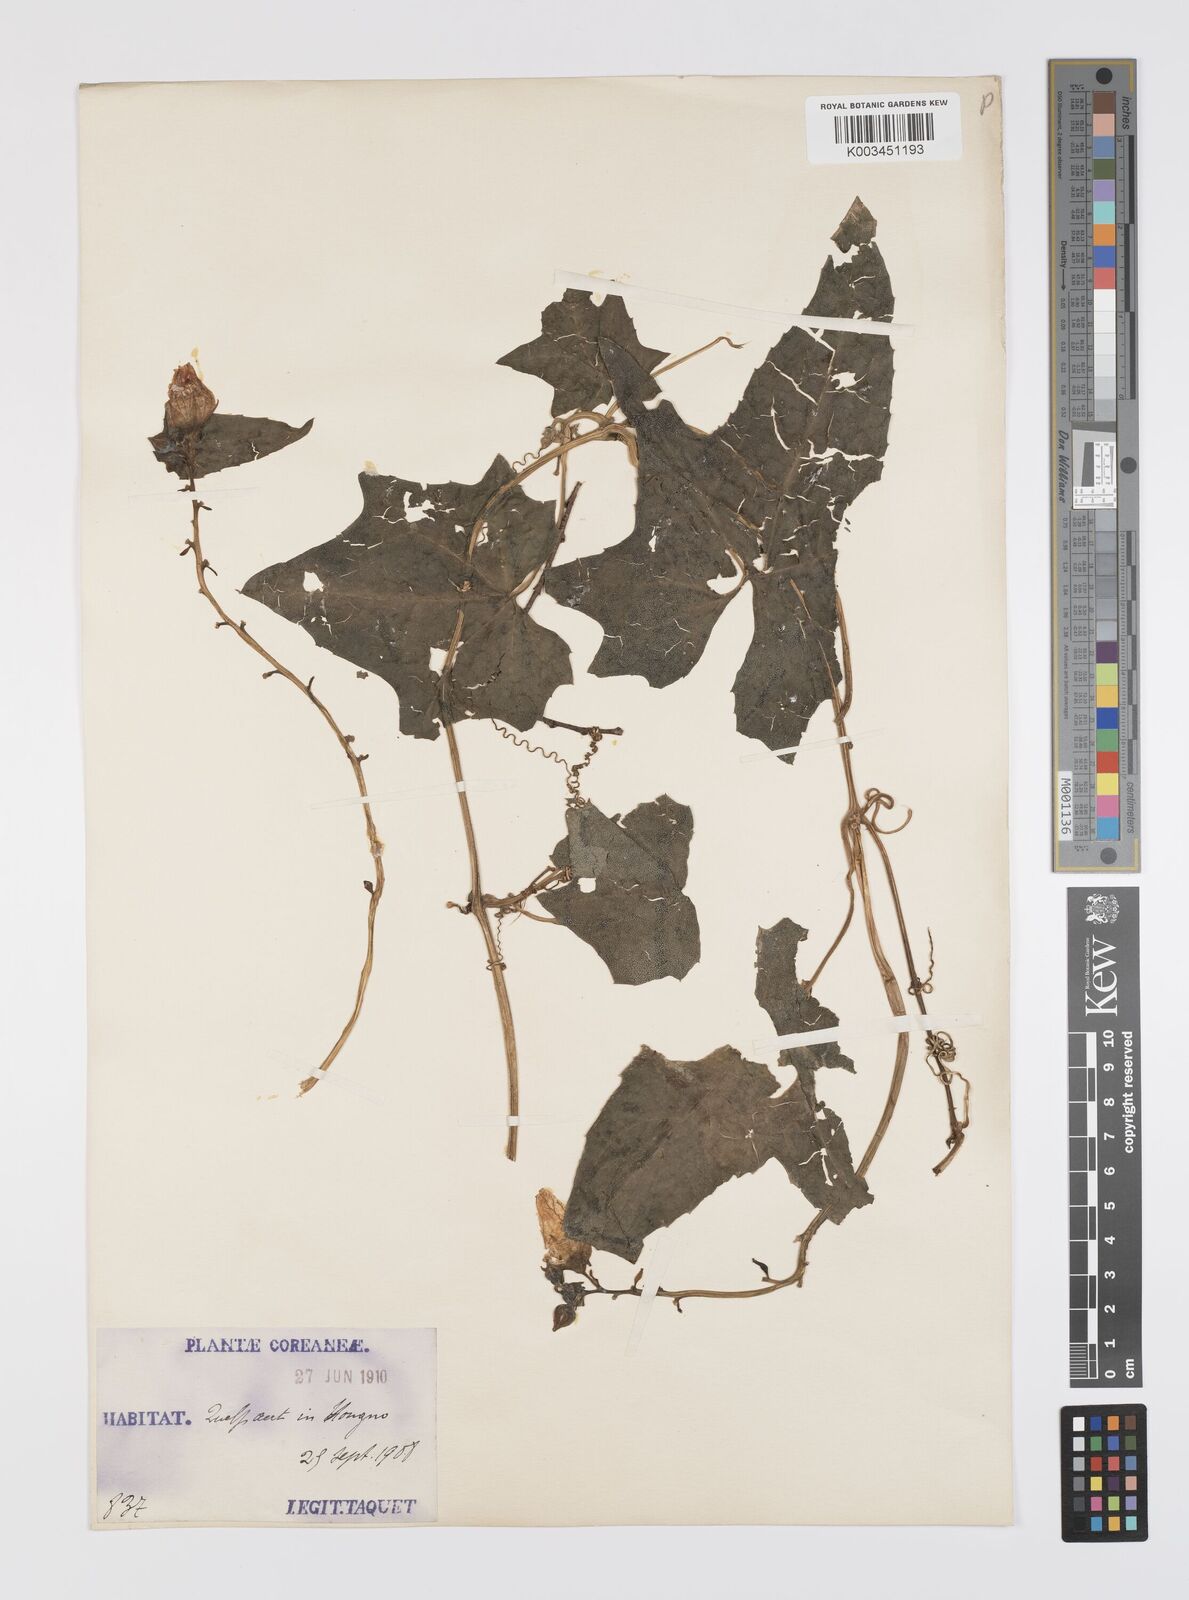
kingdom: Plantae
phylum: Tracheophyta
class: Magnoliopsida
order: Cucurbitales
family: Cucurbitaceae
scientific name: Cucurbitaceae
